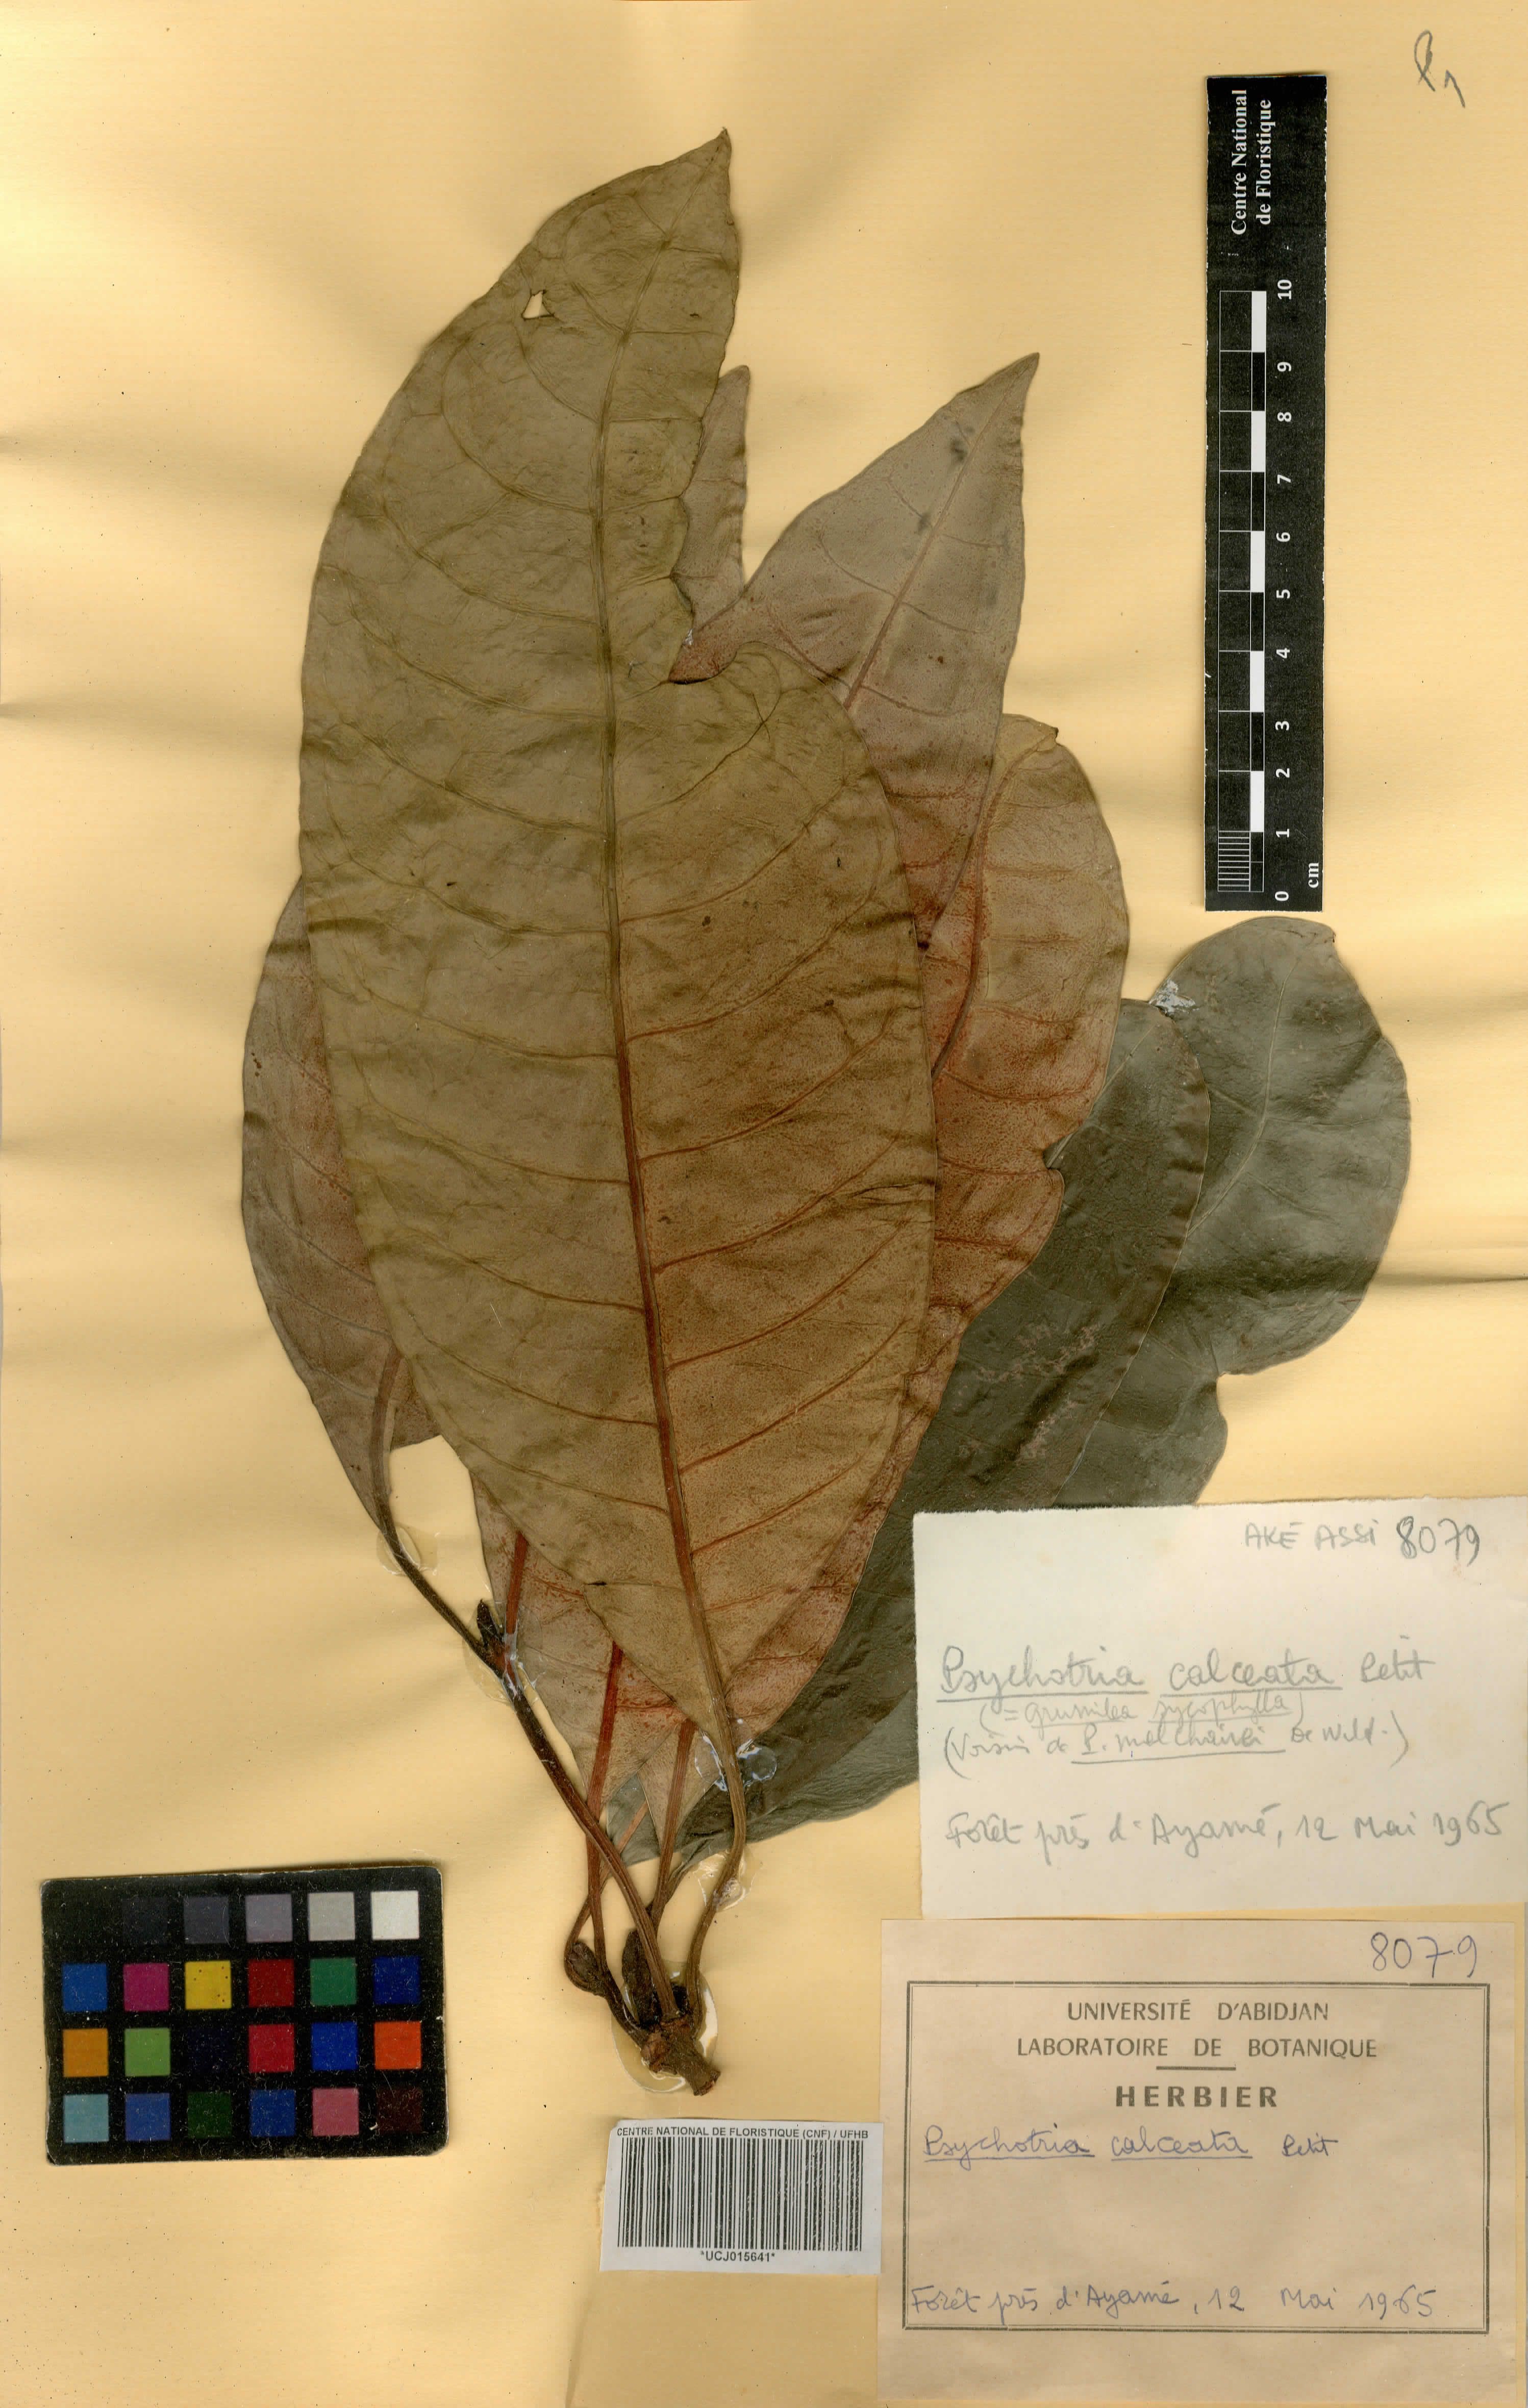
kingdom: Plantae
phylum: Tracheophyta
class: Magnoliopsida
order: Gentianales
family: Rubiaceae
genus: Psychotria
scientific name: Psychotria calceata
